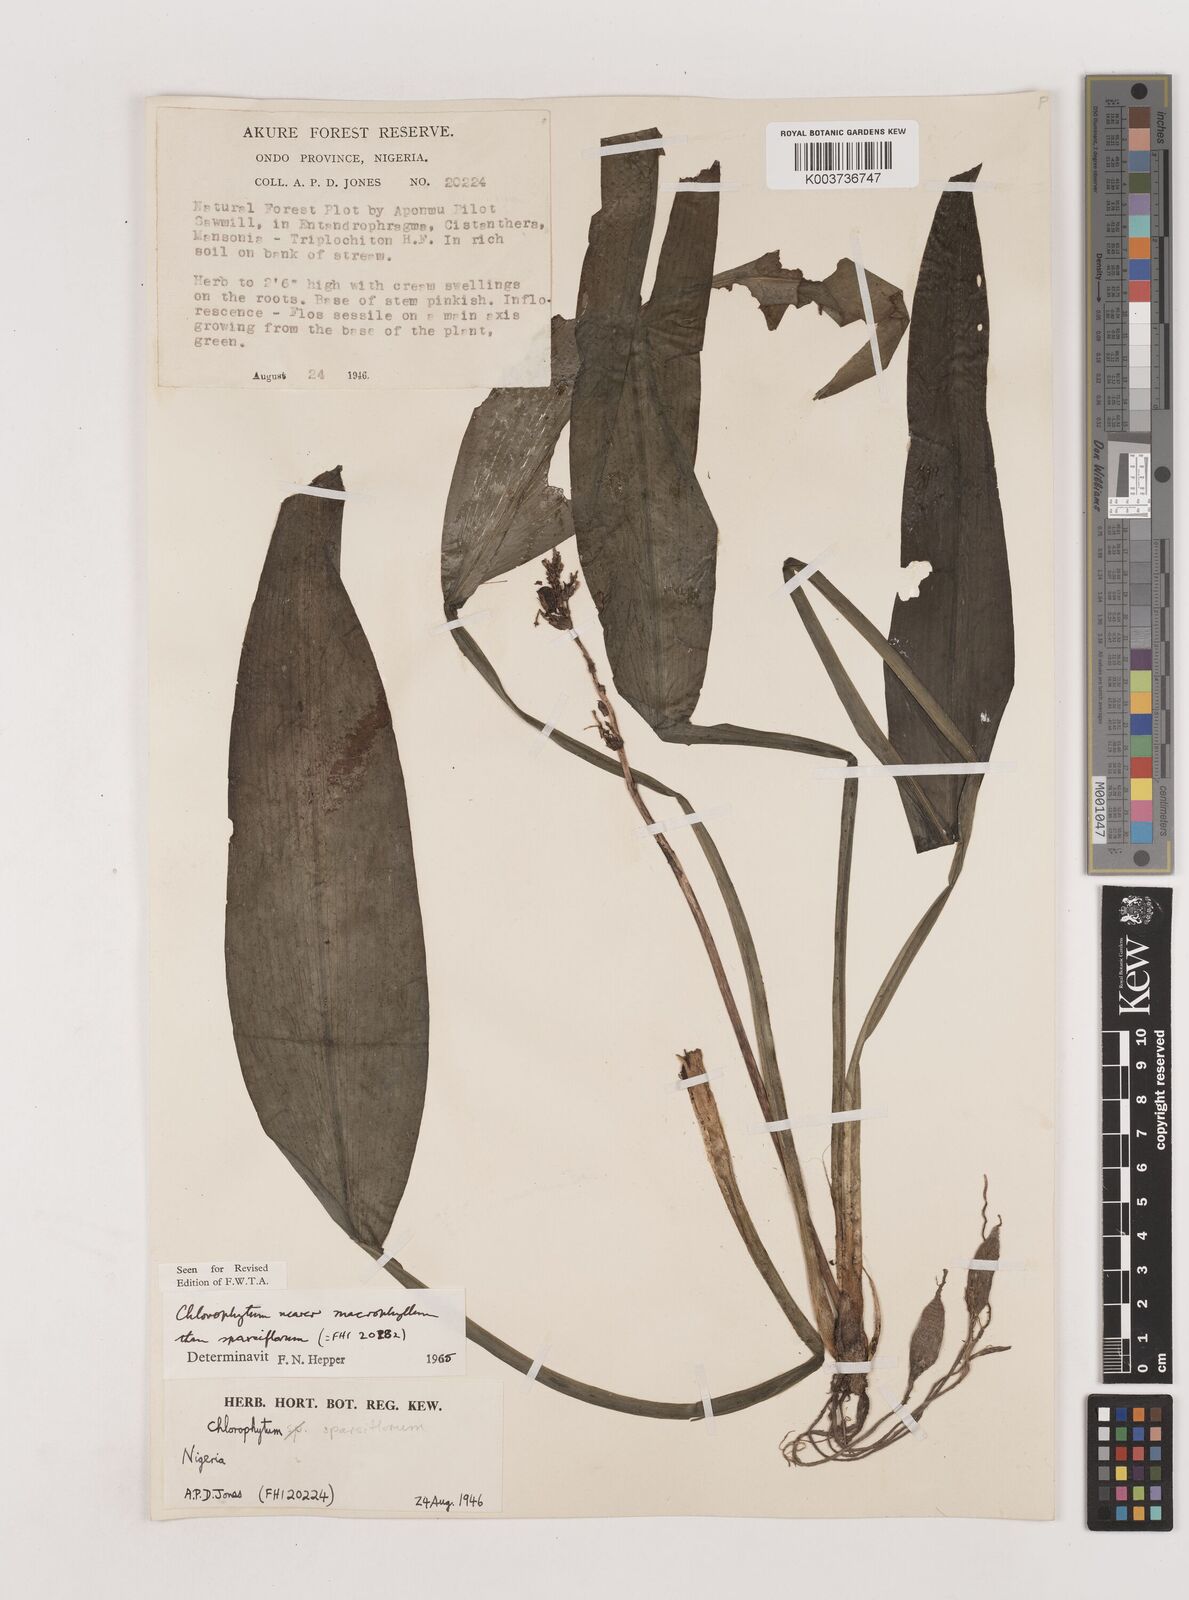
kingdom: Plantae
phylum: Tracheophyta
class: Liliopsida
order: Asparagales
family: Asparagaceae
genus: Chlorophytum
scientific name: Chlorophytum macrophyllum
